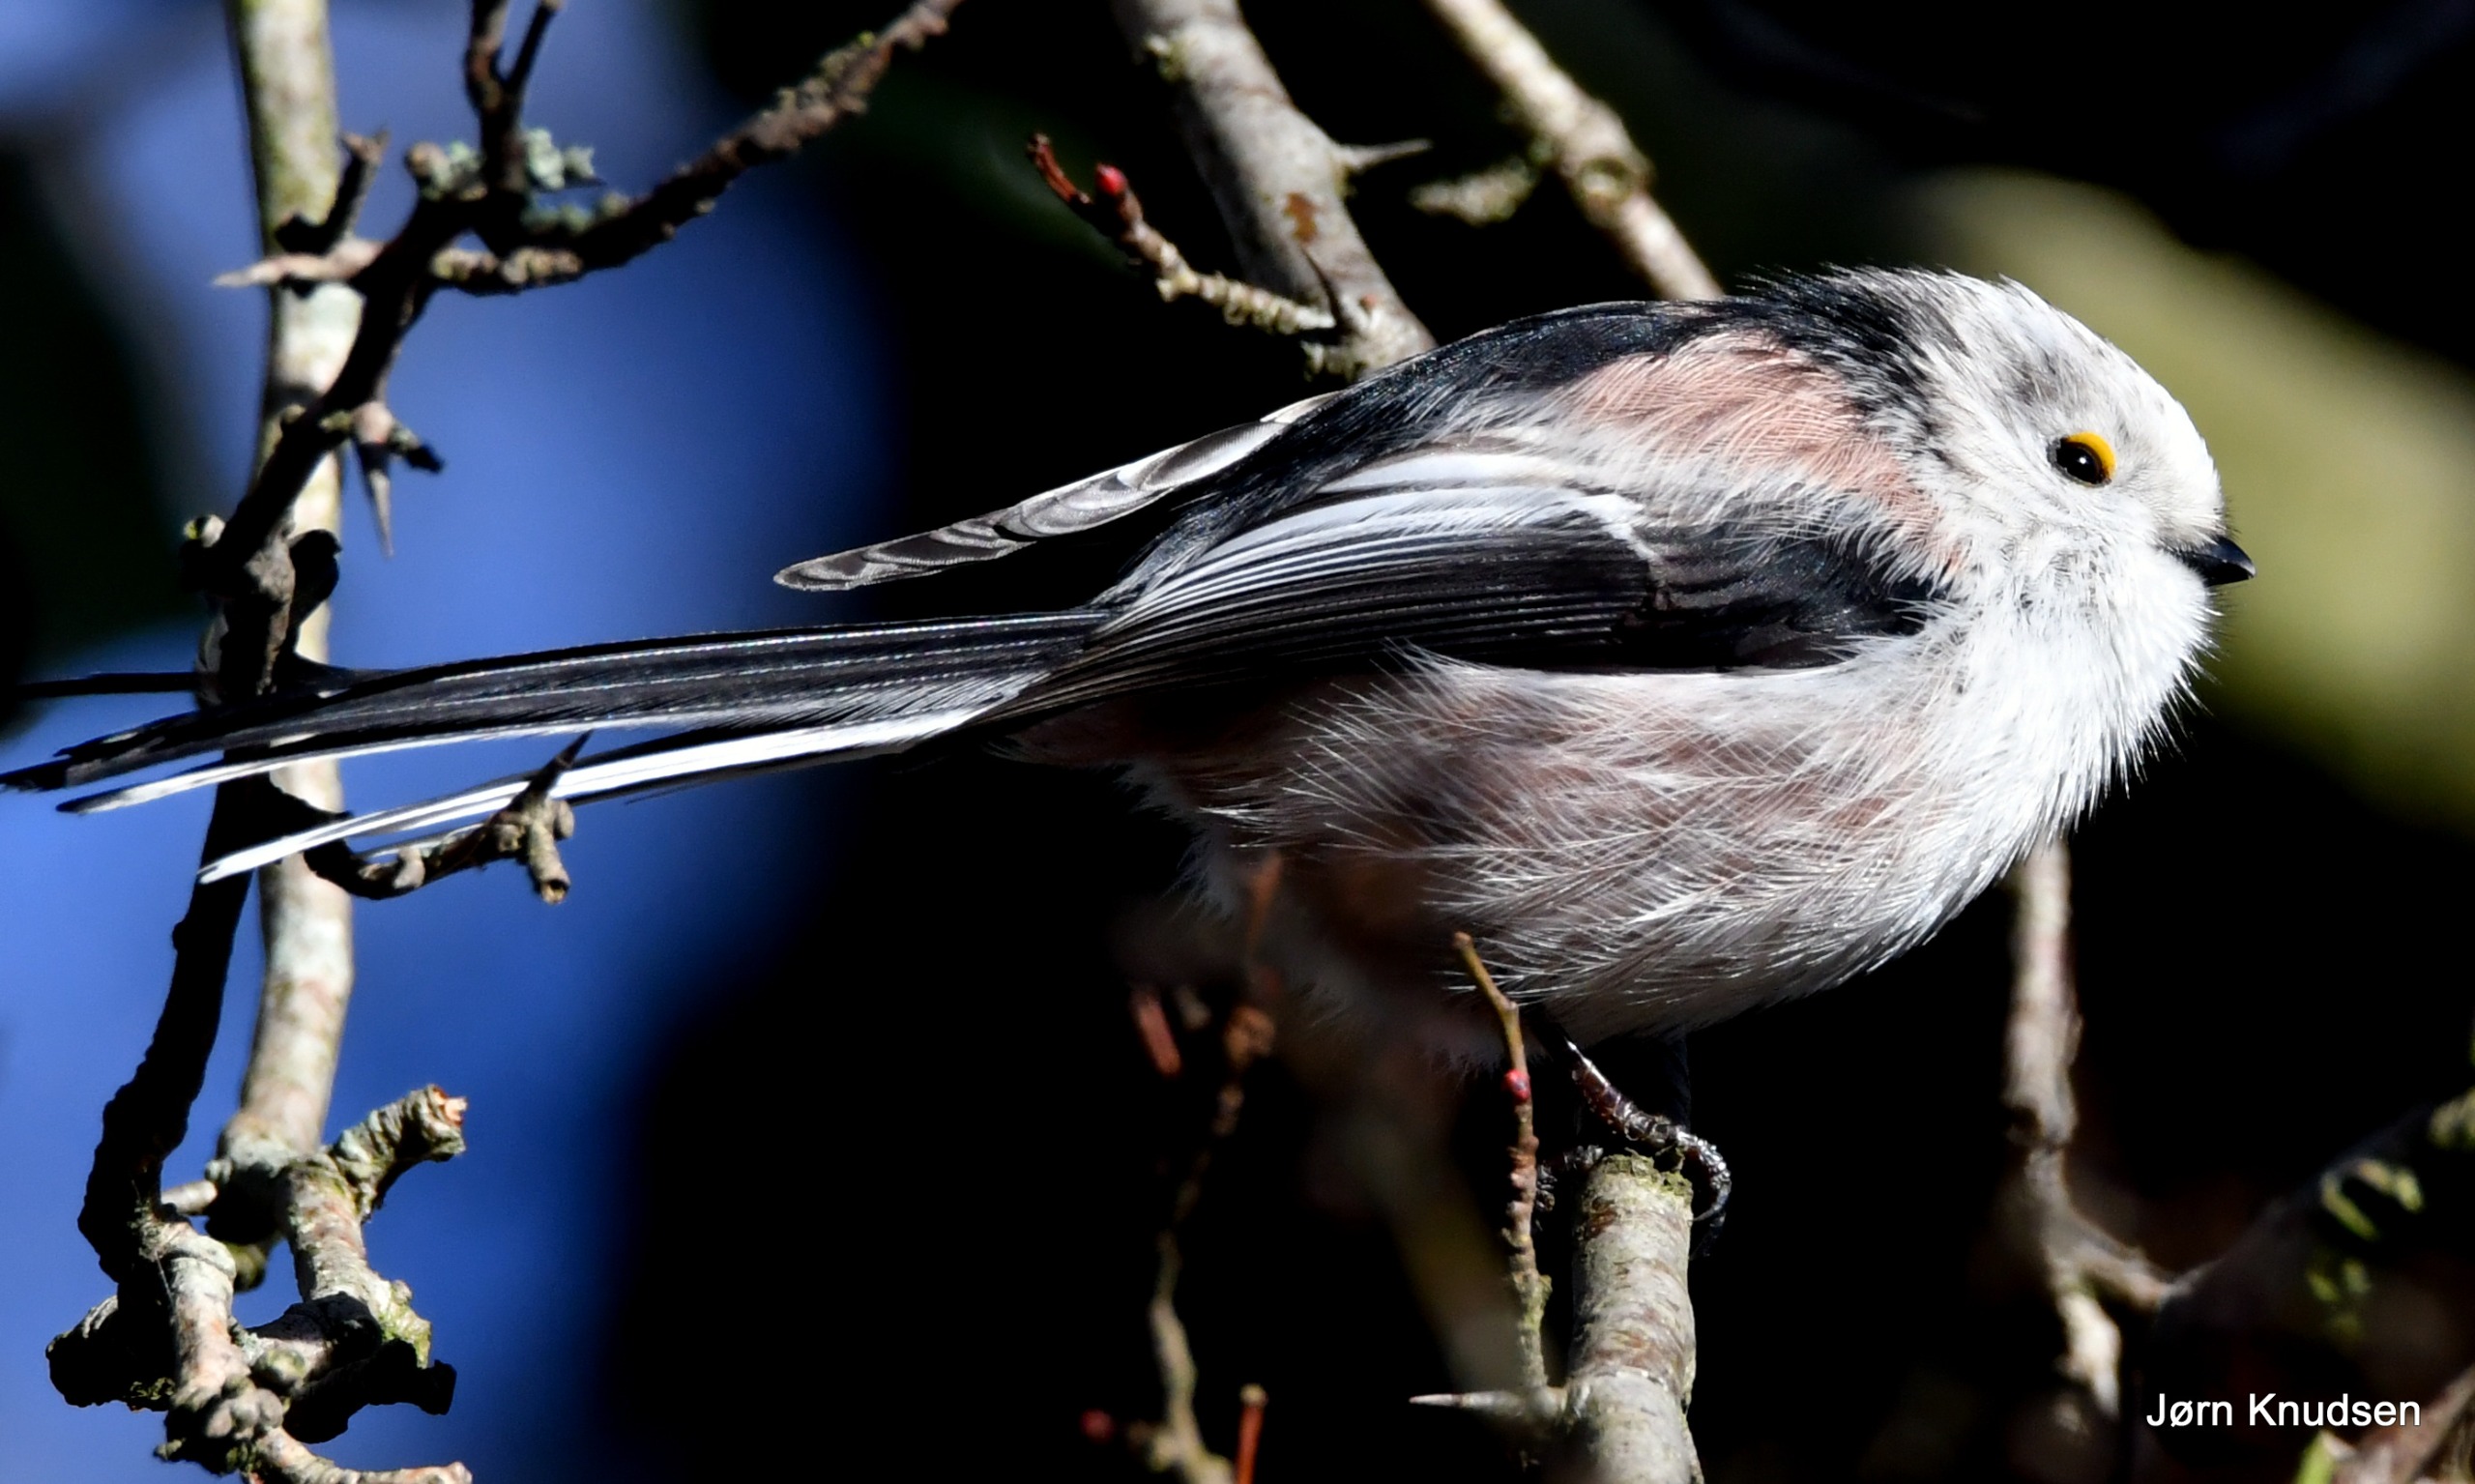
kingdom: Animalia
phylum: Chordata
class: Aves
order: Passeriformes
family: Aegithalidae
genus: Aegithalos
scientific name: Aegithalos caudatus
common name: Halemejse
